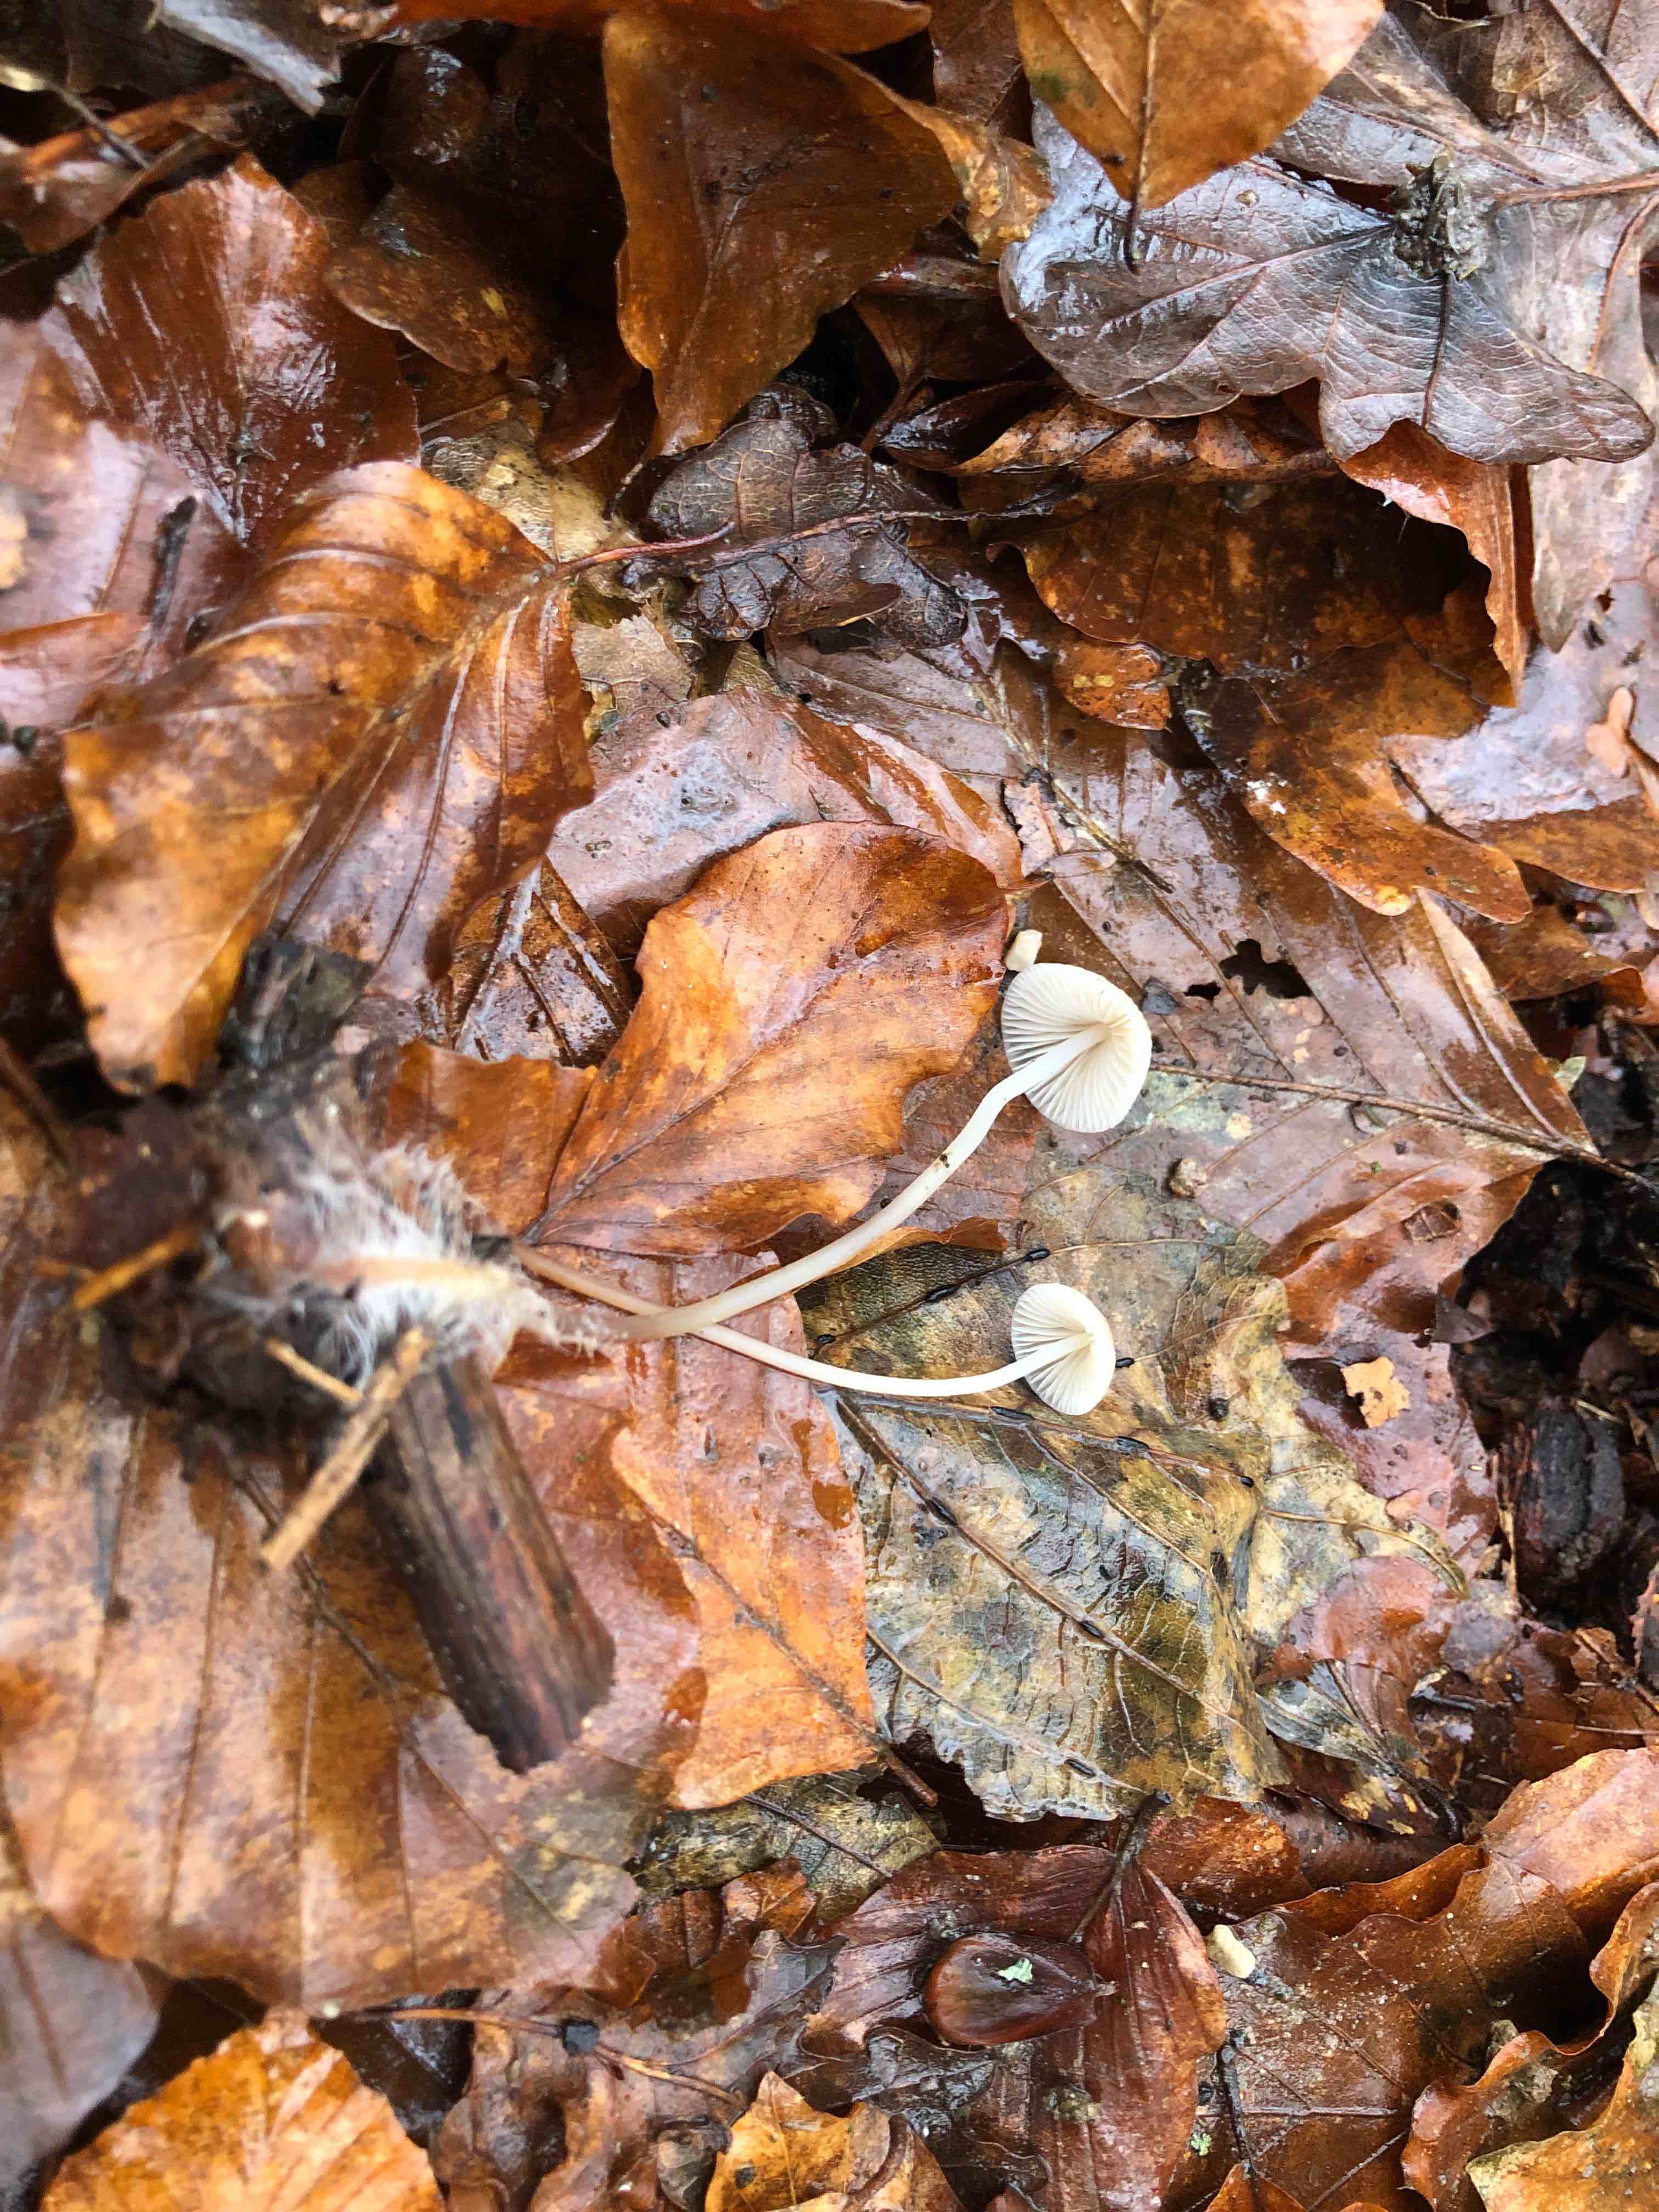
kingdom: Fungi
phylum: Basidiomycota
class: Agaricomycetes
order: Agaricales
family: Mycenaceae
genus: Mycena
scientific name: Mycena vitilis
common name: blankstokket huesvamp
